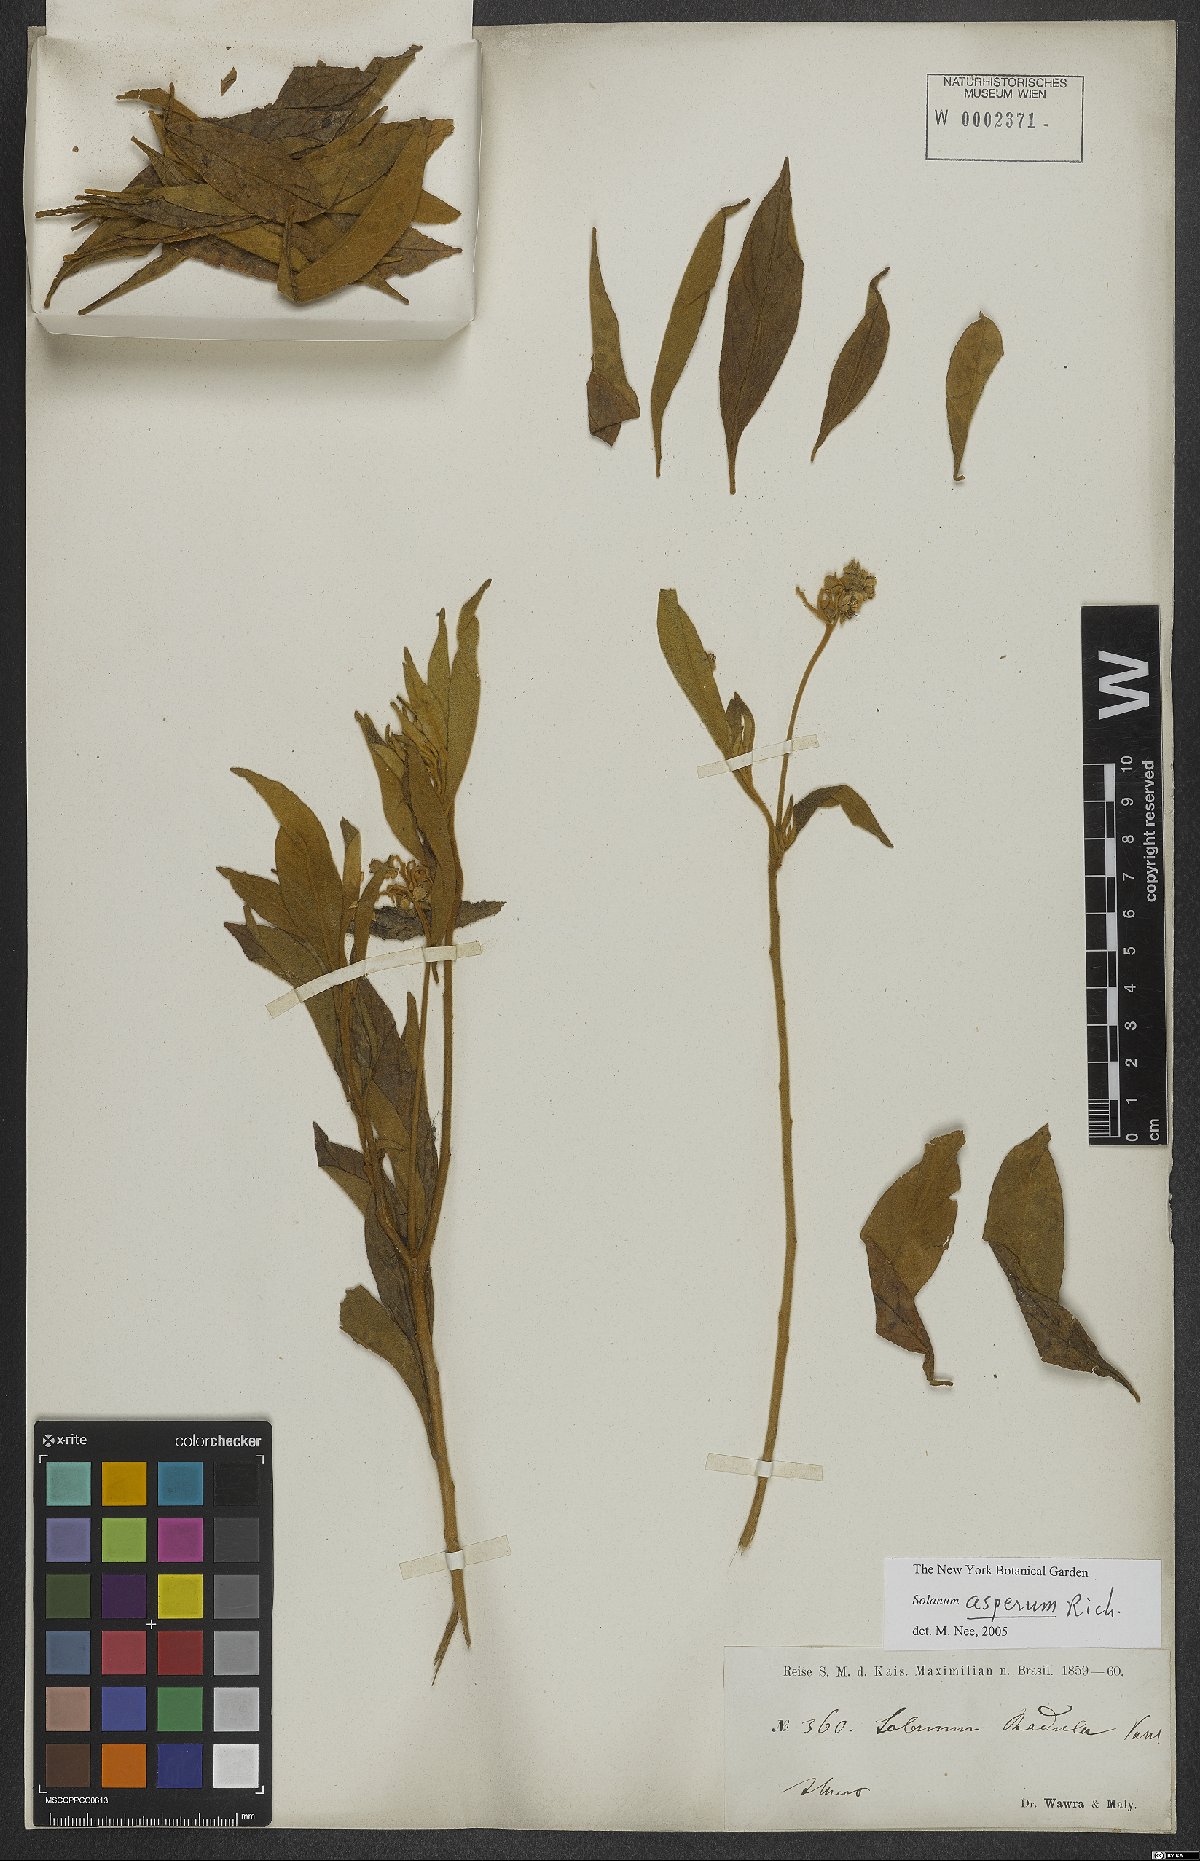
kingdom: Plantae
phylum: Tracheophyta
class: Magnoliopsida
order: Solanales
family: Solanaceae
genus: Solanum
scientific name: Solanum asperum
